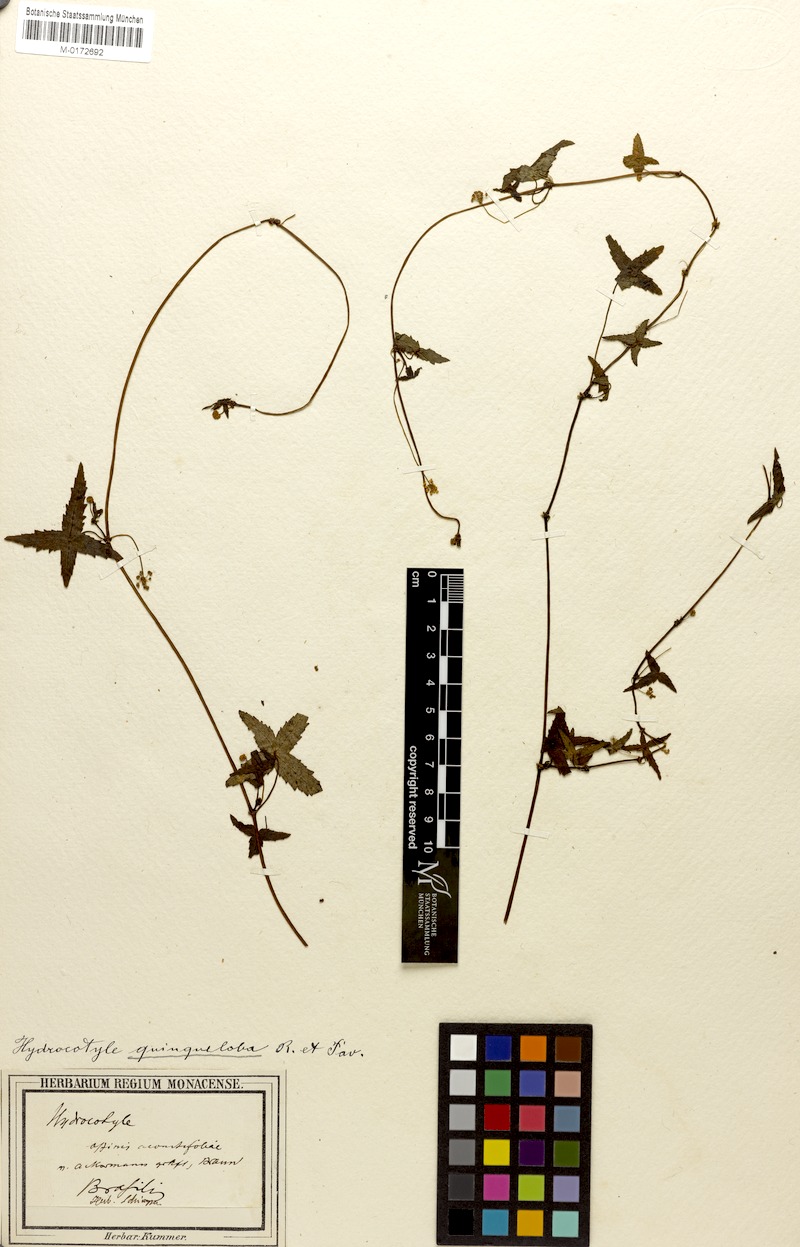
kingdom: Plantae
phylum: Tracheophyta
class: Magnoliopsida
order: Apiales
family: Araliaceae
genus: Hydrocotyle
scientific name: Hydrocotyle quinqueloba
